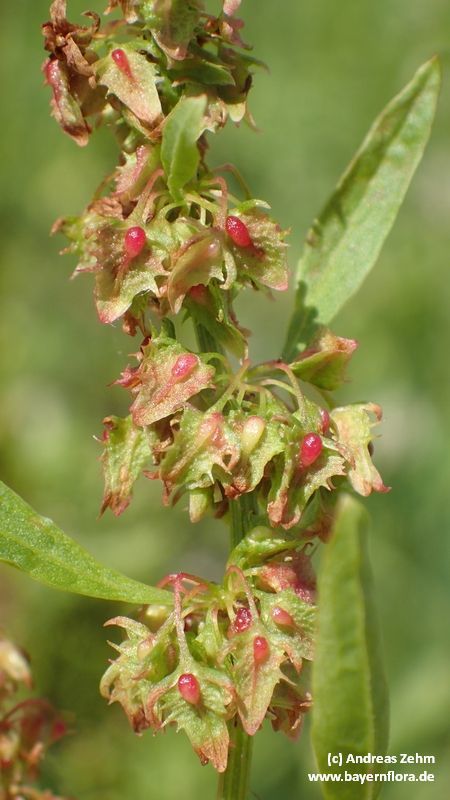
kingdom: Plantae
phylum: Tracheophyta
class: Magnoliopsida
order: Caryophyllales
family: Polygonaceae
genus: Rumex
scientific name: Rumex obtusifolius
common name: Bitter dock
